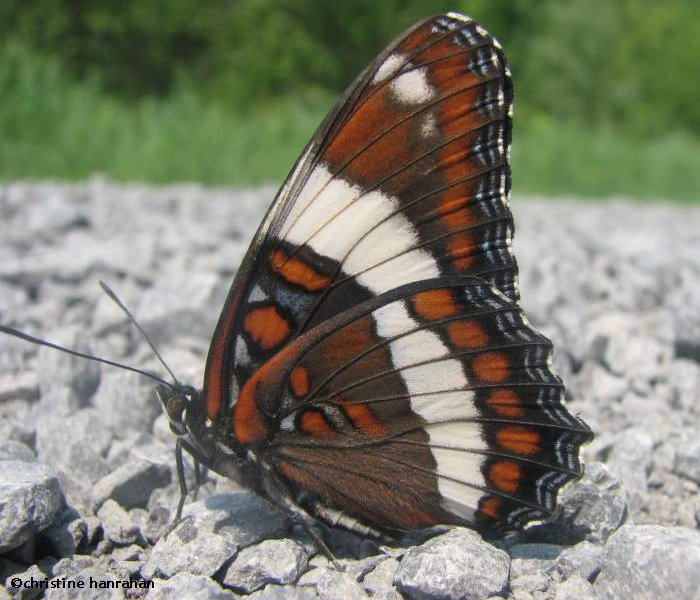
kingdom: Animalia
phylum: Arthropoda
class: Insecta
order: Lepidoptera
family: Nymphalidae
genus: Limenitis
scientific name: Limenitis arthemis
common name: Red-spotted Admiral
